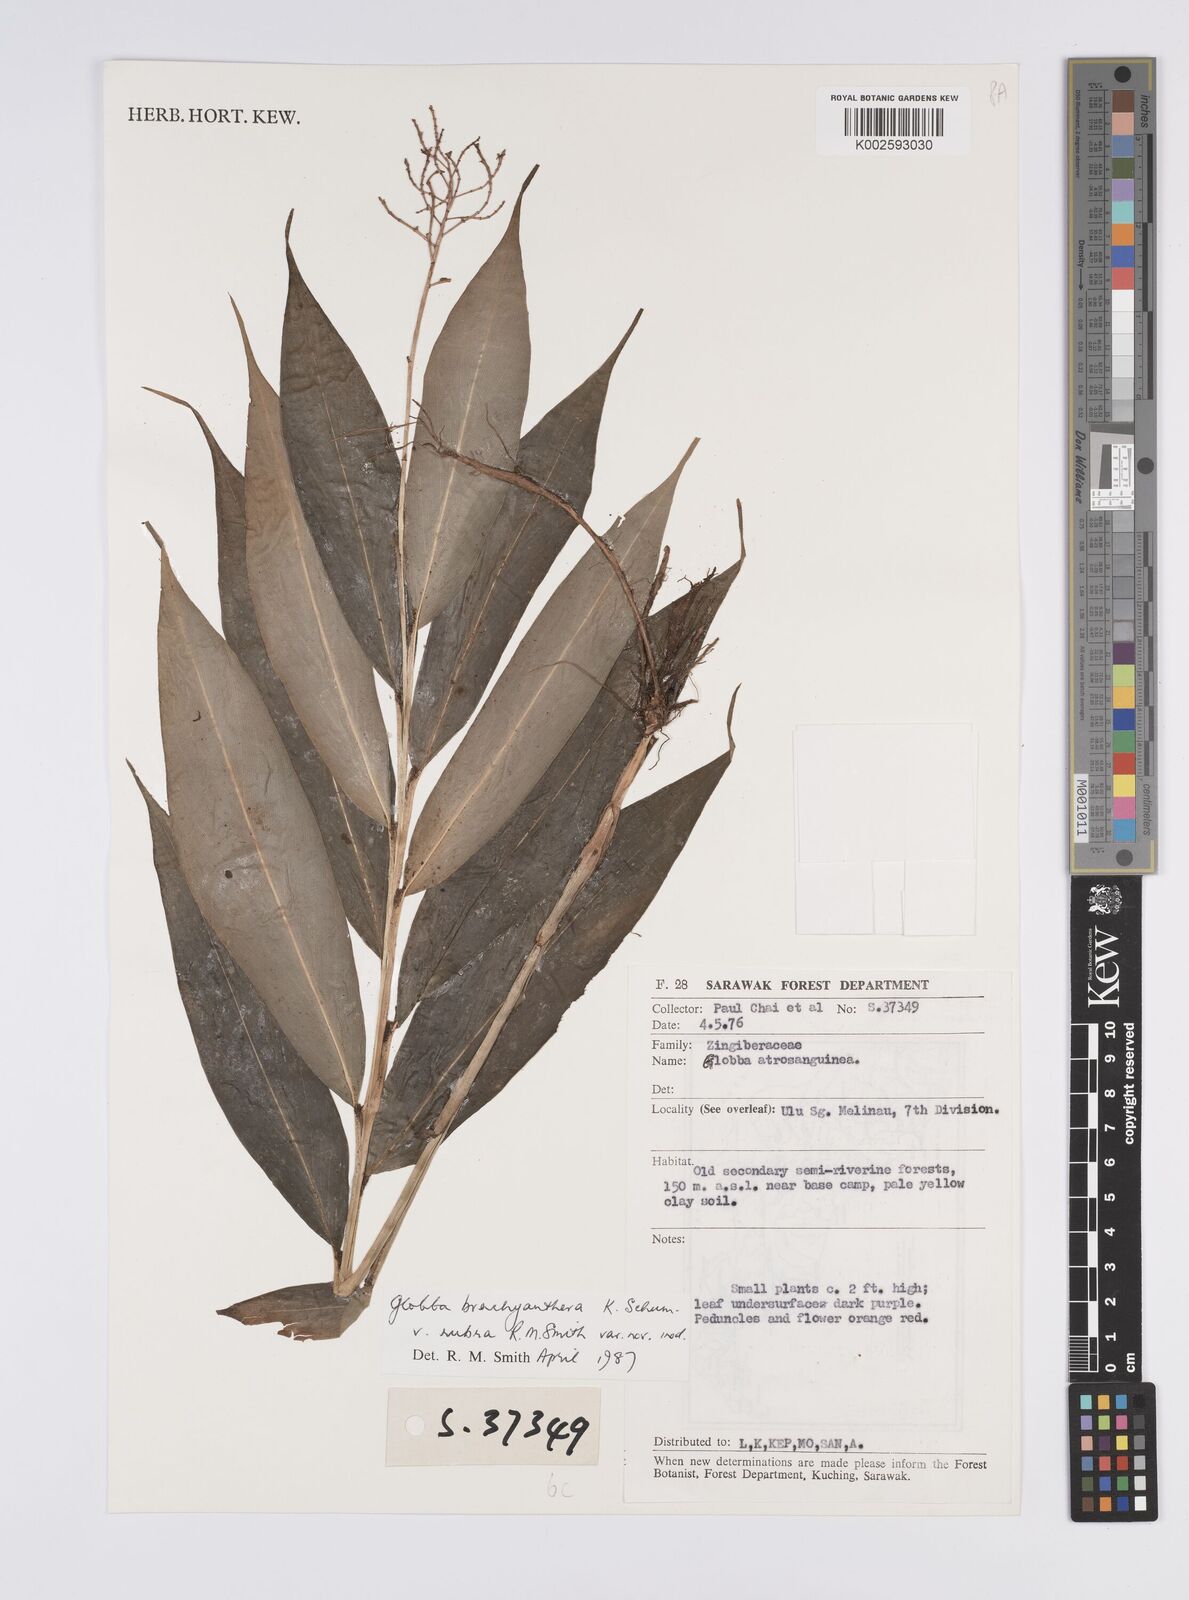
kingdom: Plantae
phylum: Tracheophyta
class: Liliopsida
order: Zingiberales
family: Zingiberaceae
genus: Globba
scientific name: Globba brachyanthera
